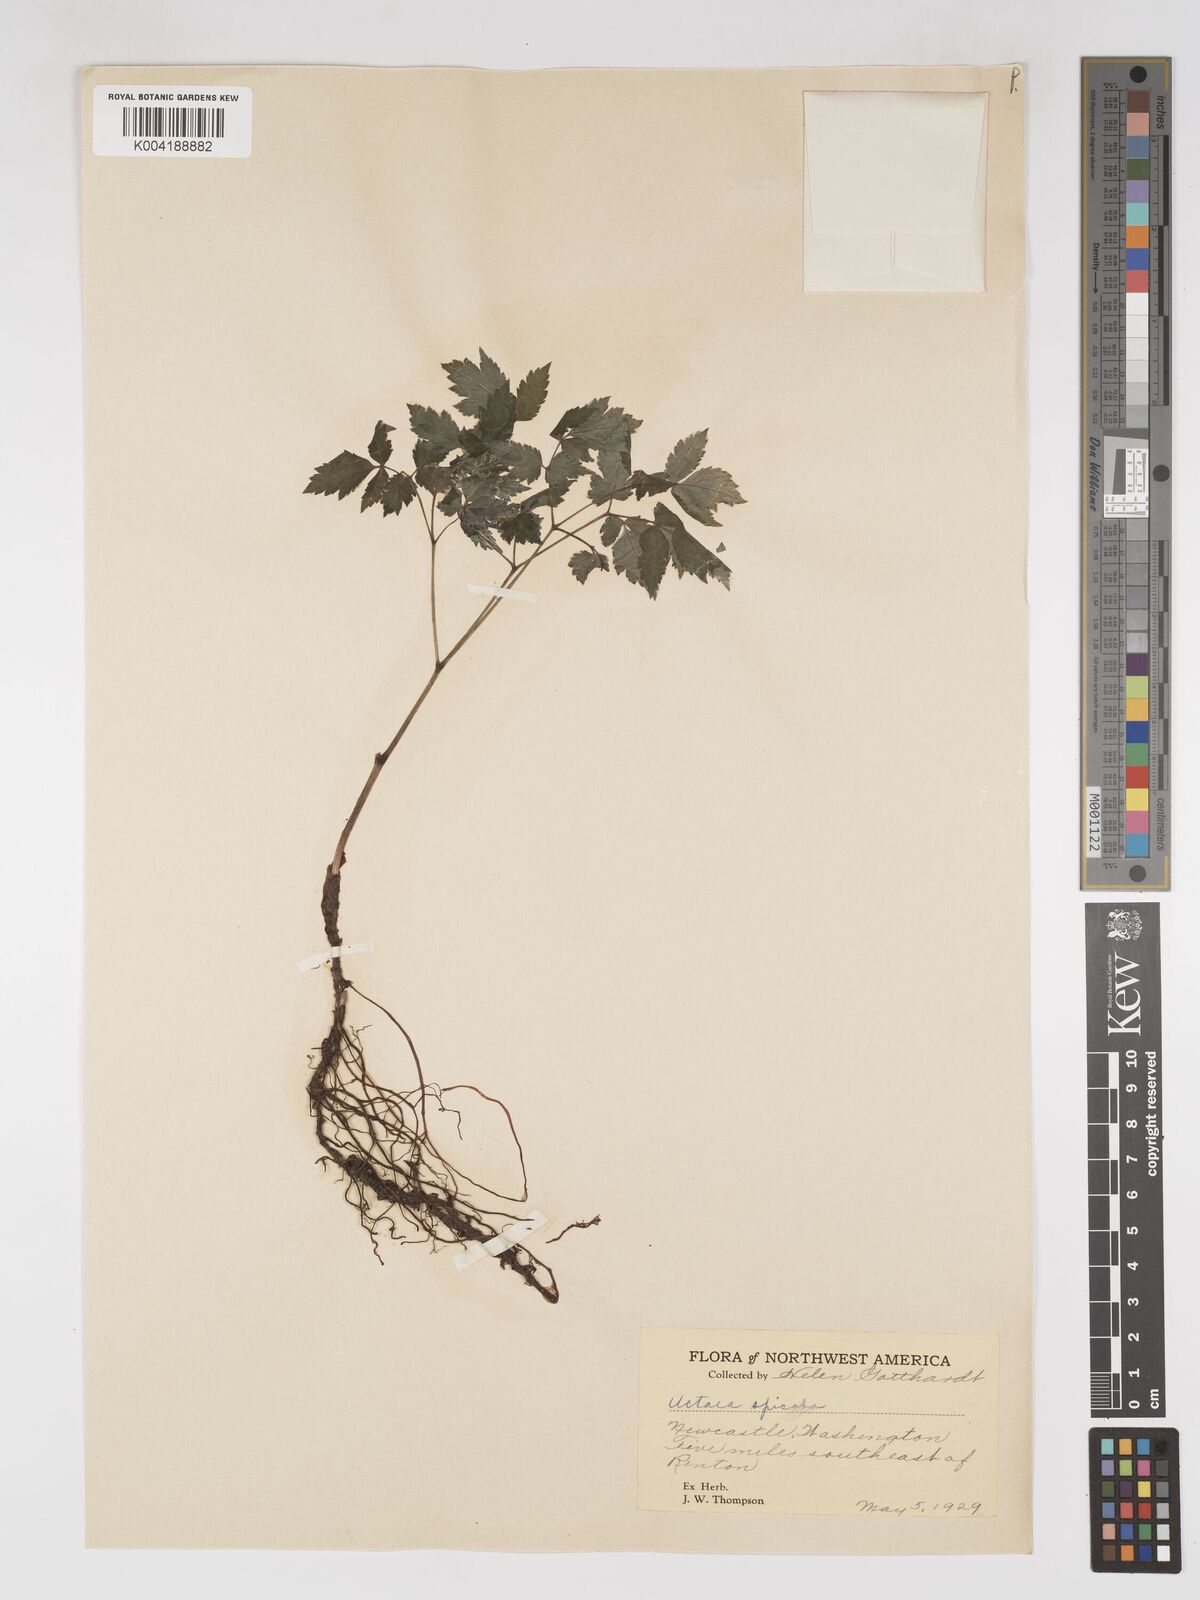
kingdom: Plantae
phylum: Tracheophyta
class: Magnoliopsida
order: Ranunculales
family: Ranunculaceae
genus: Actaea
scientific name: Actaea spicata
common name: Baneberry
